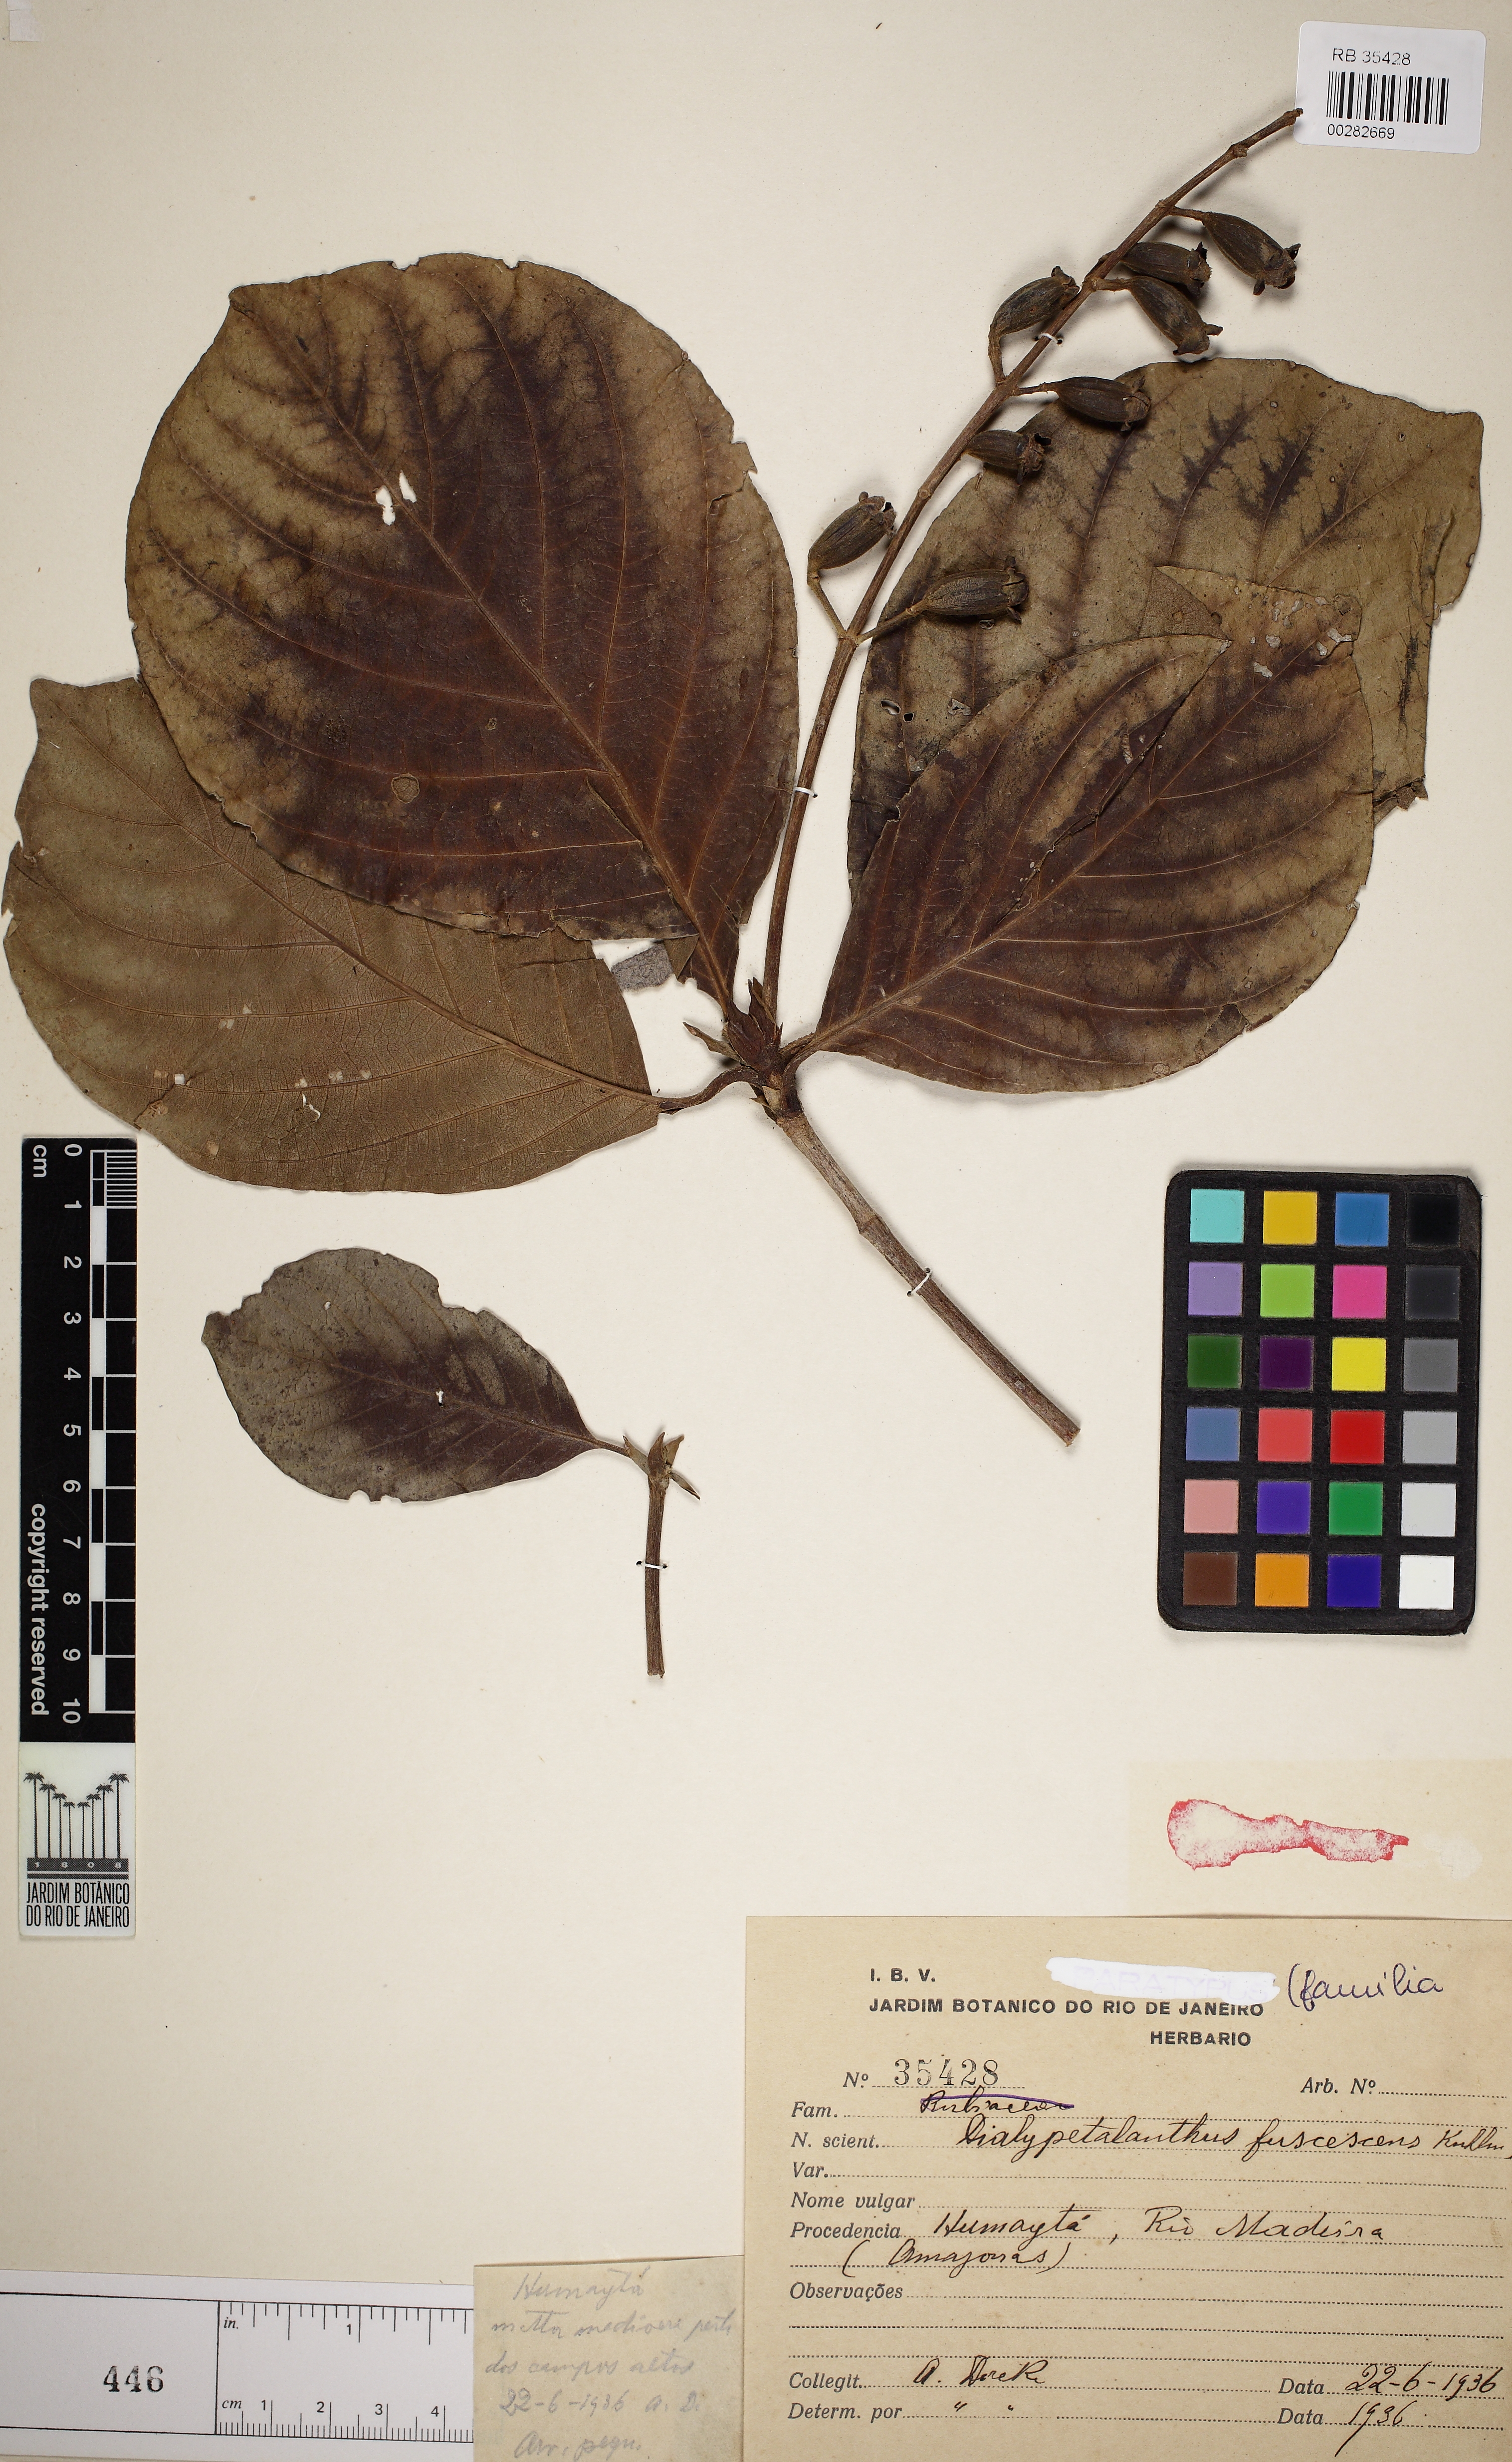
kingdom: Plantae
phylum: Tracheophyta
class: Magnoliopsida
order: Gentianales
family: Rubiaceae
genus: Dialypetalanthus
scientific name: Dialypetalanthus fuscescens
